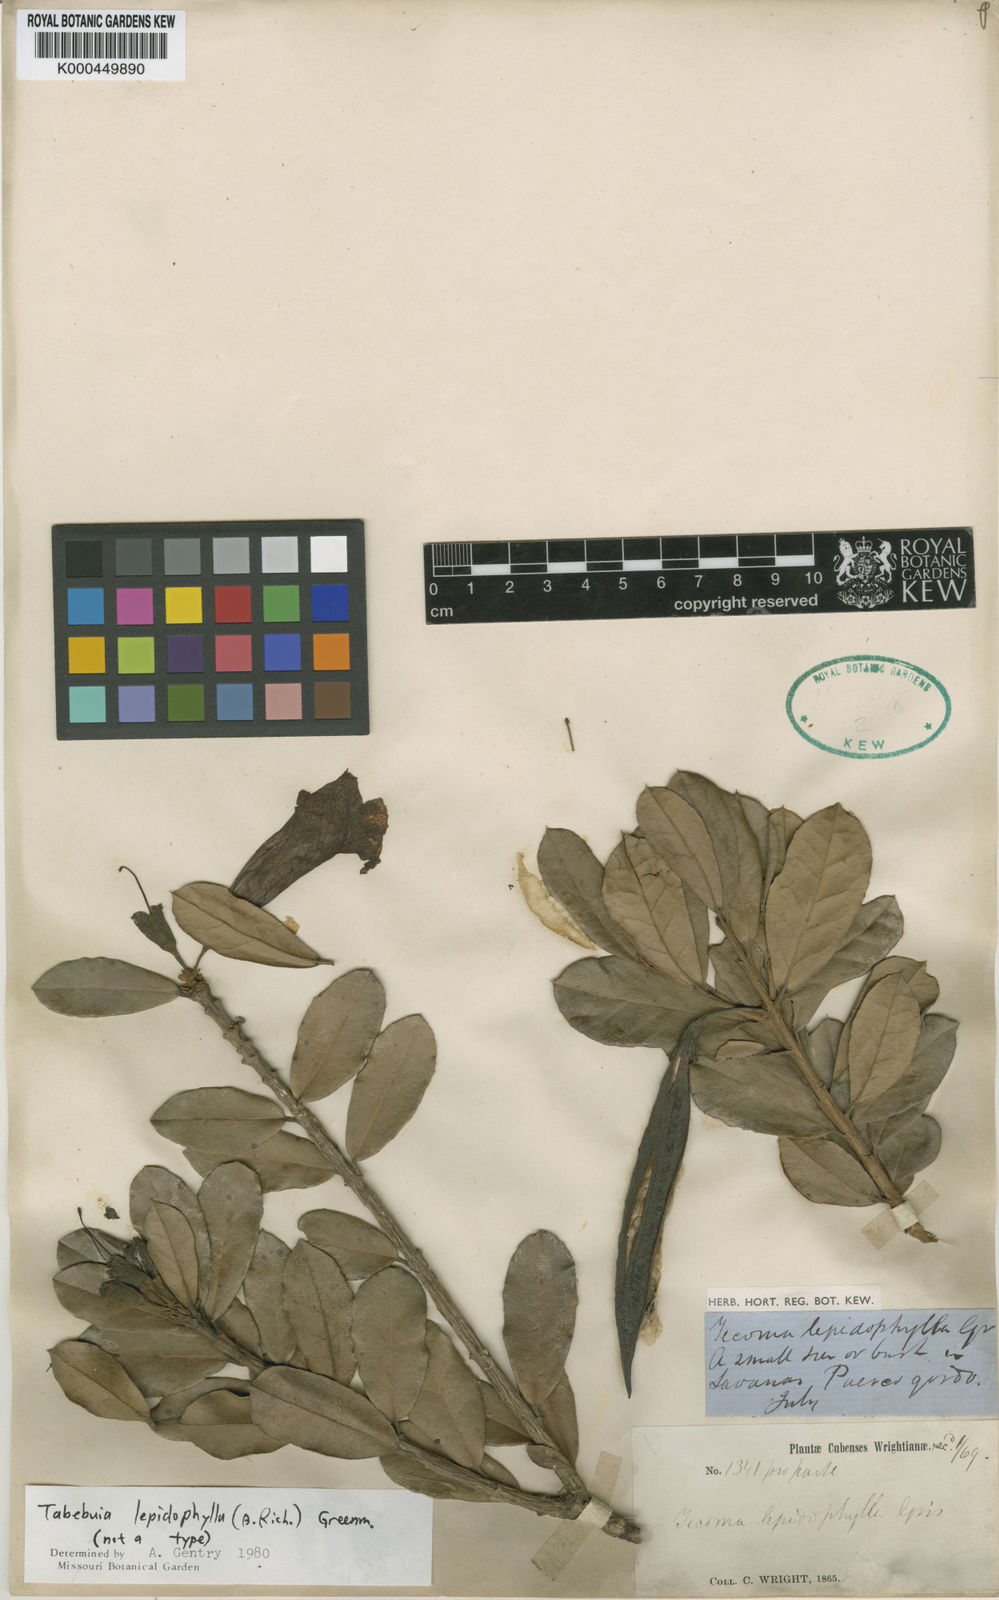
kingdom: Plantae
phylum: Tracheophyta
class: Magnoliopsida
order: Lamiales
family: Bignoniaceae
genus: Tabebuia
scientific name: Tabebuia
